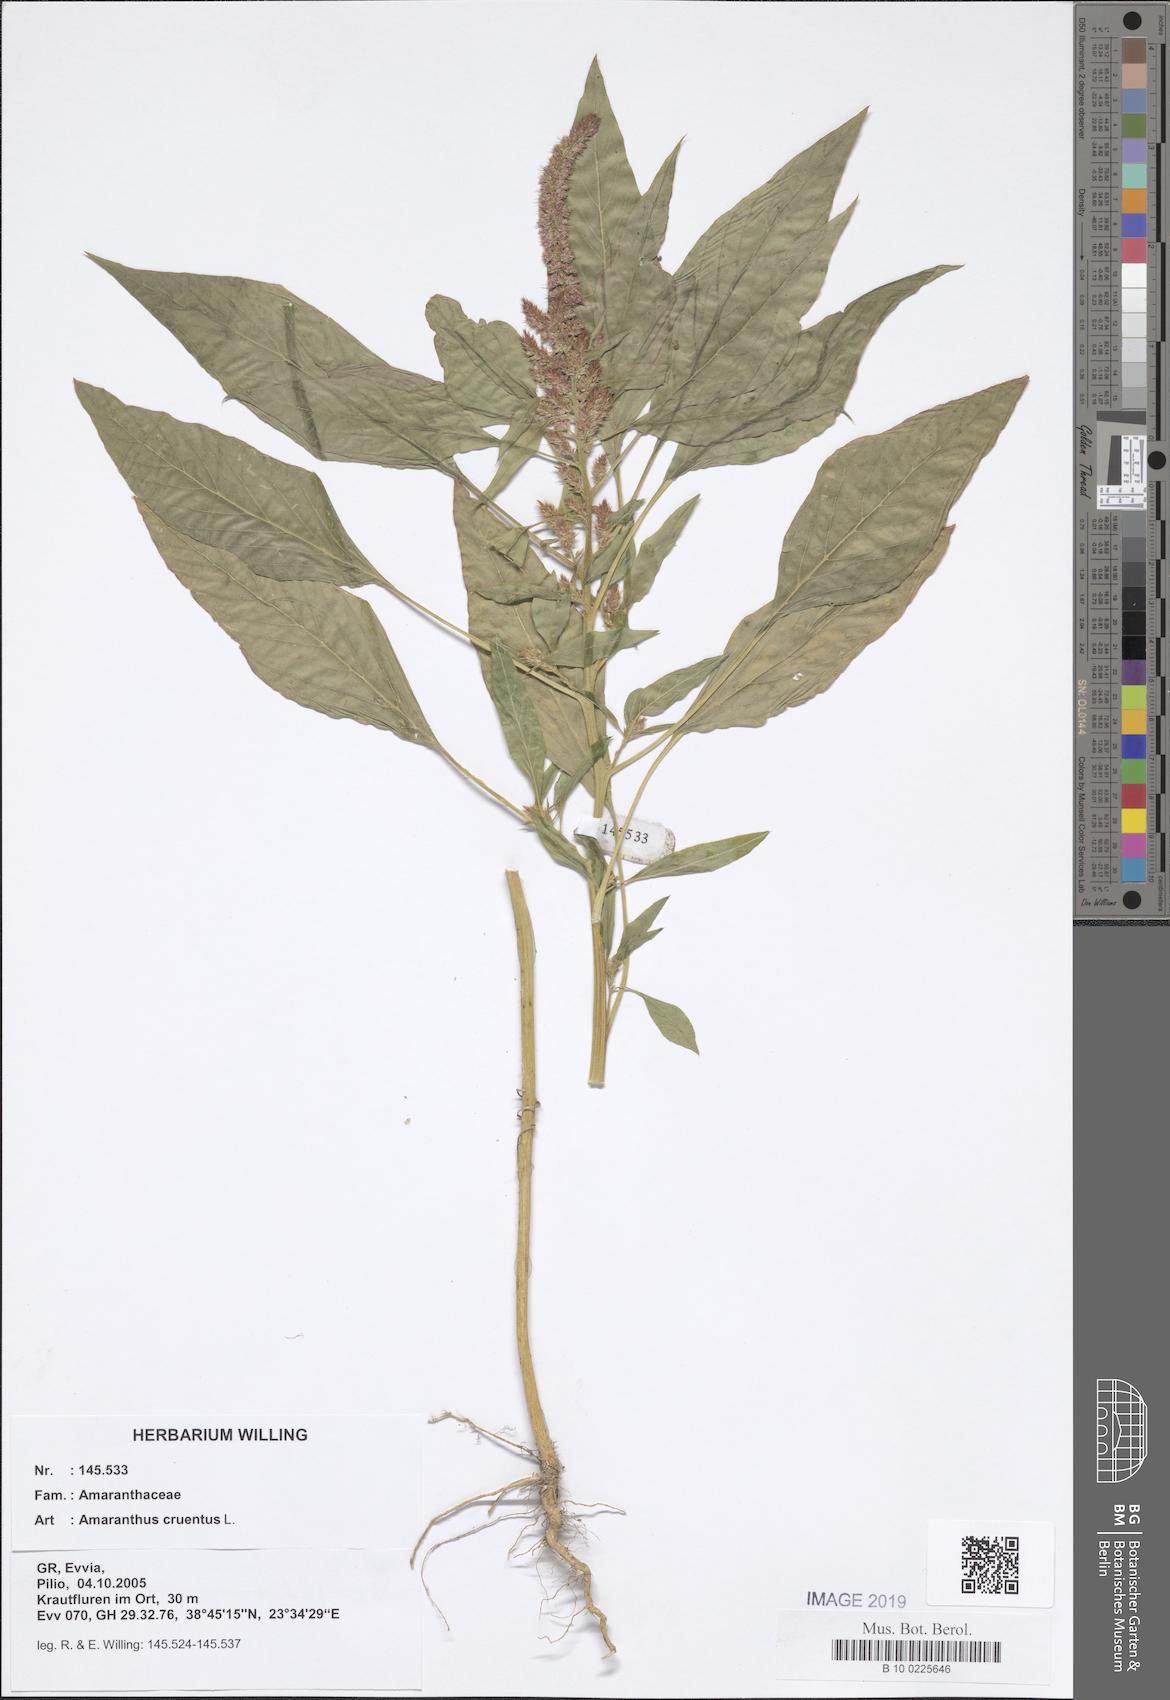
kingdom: Plantae
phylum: Tracheophyta
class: Magnoliopsida
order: Caryophyllales
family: Amaranthaceae
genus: Amaranthus
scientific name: Amaranthus cruentus
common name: Purple amaranth
